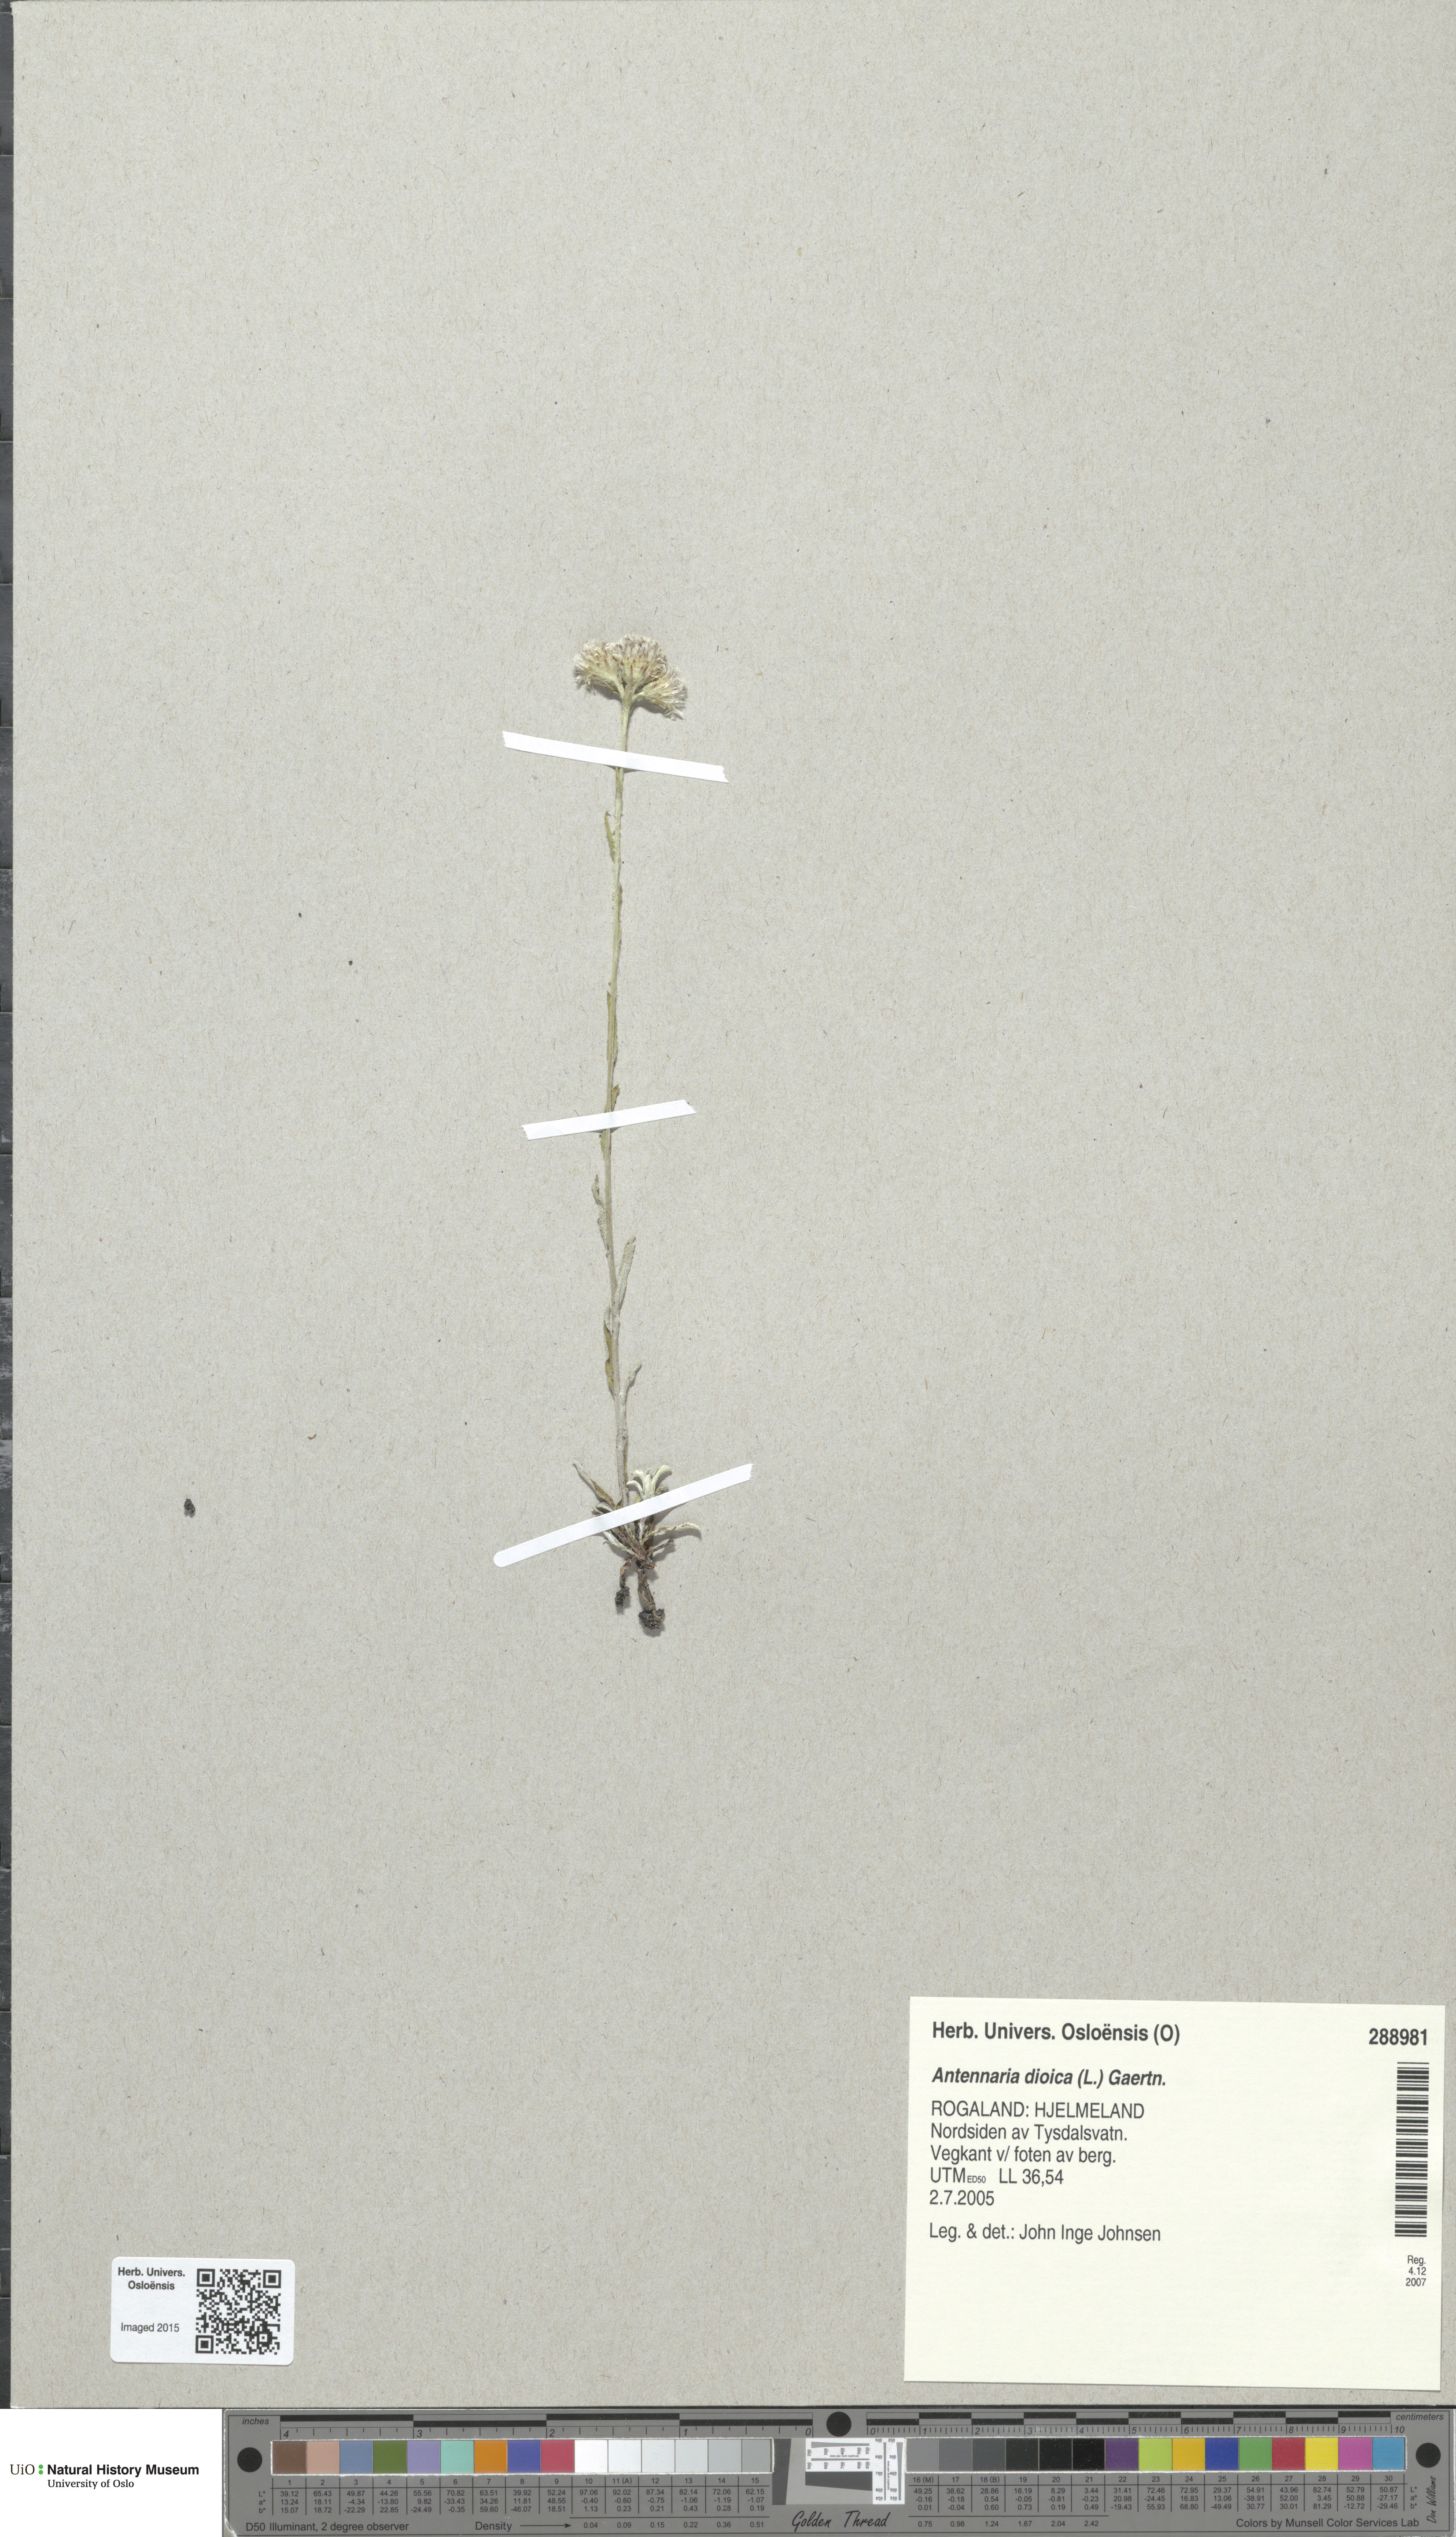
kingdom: Plantae
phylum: Tracheophyta
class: Magnoliopsida
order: Asterales
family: Asteraceae
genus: Antennaria
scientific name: Antennaria dioica
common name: Mountain everlasting
